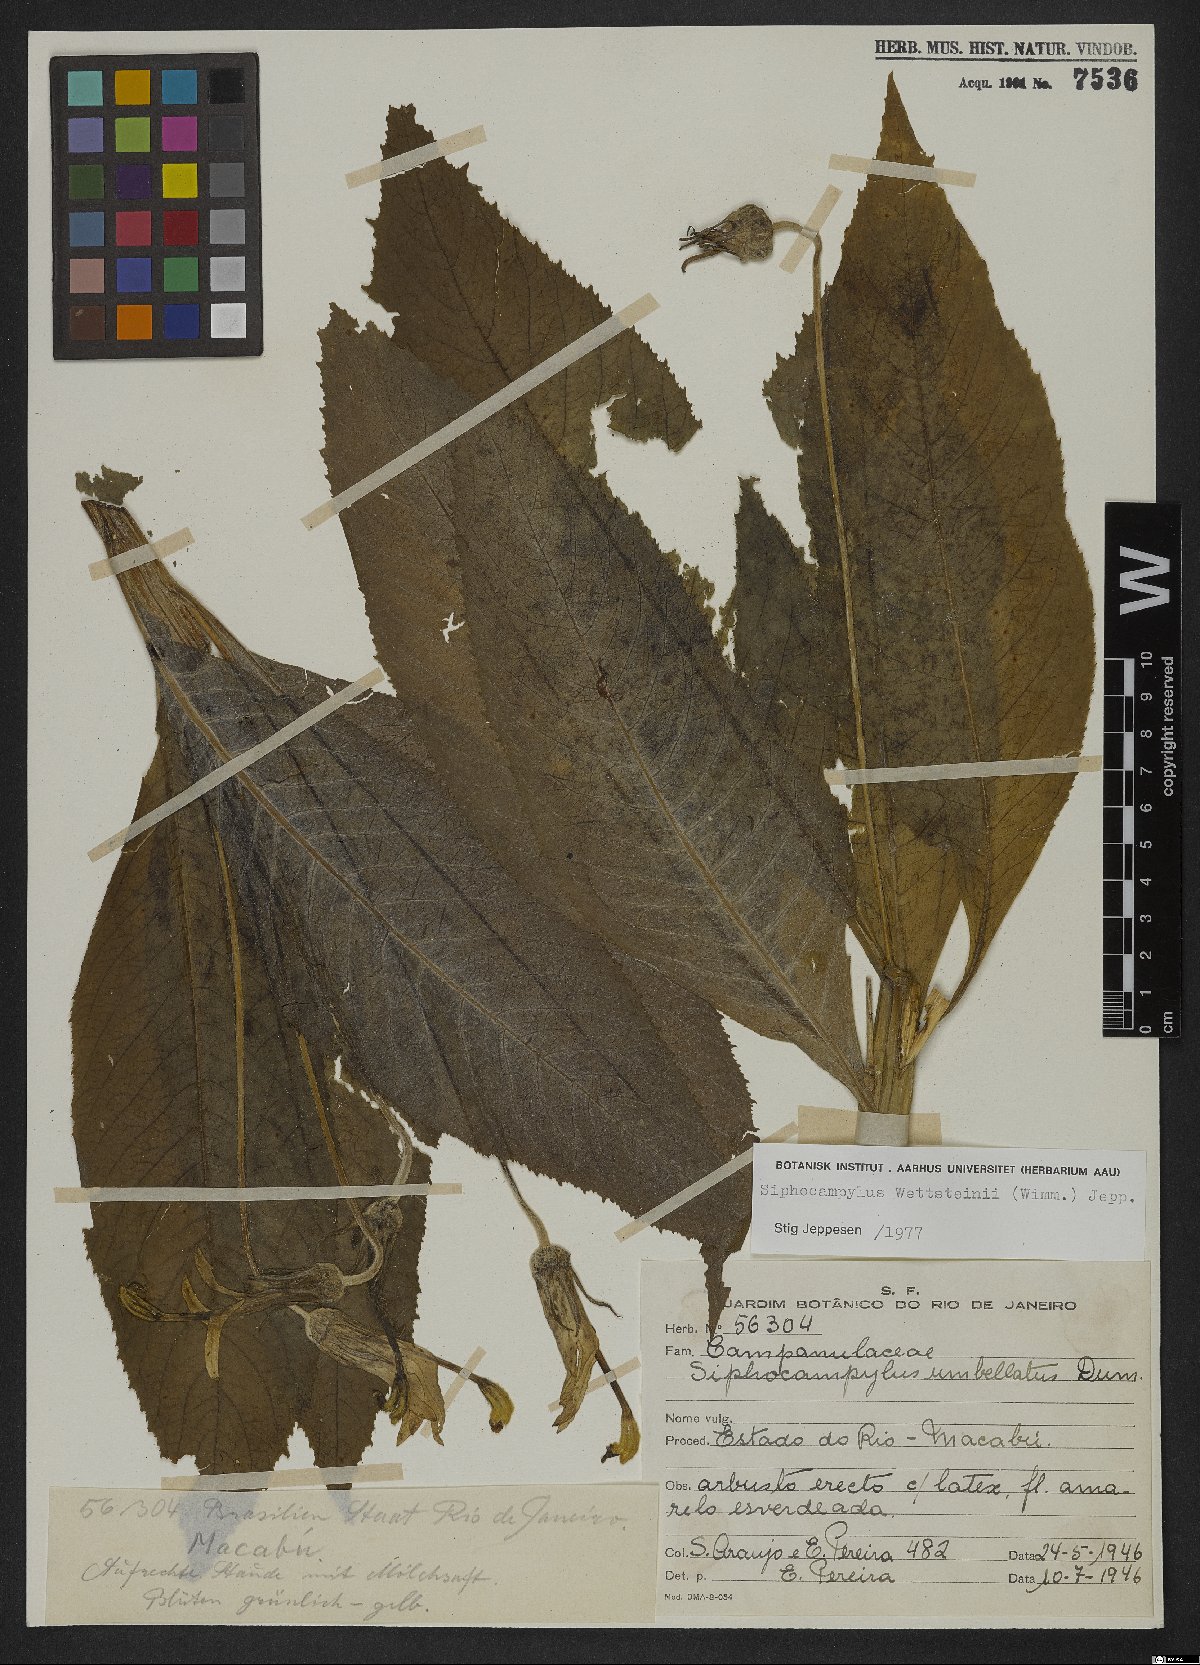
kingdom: Plantae
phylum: Tracheophyta
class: Magnoliopsida
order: Asterales
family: Campanulaceae
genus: Siphocampylus
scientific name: Siphocampylus
